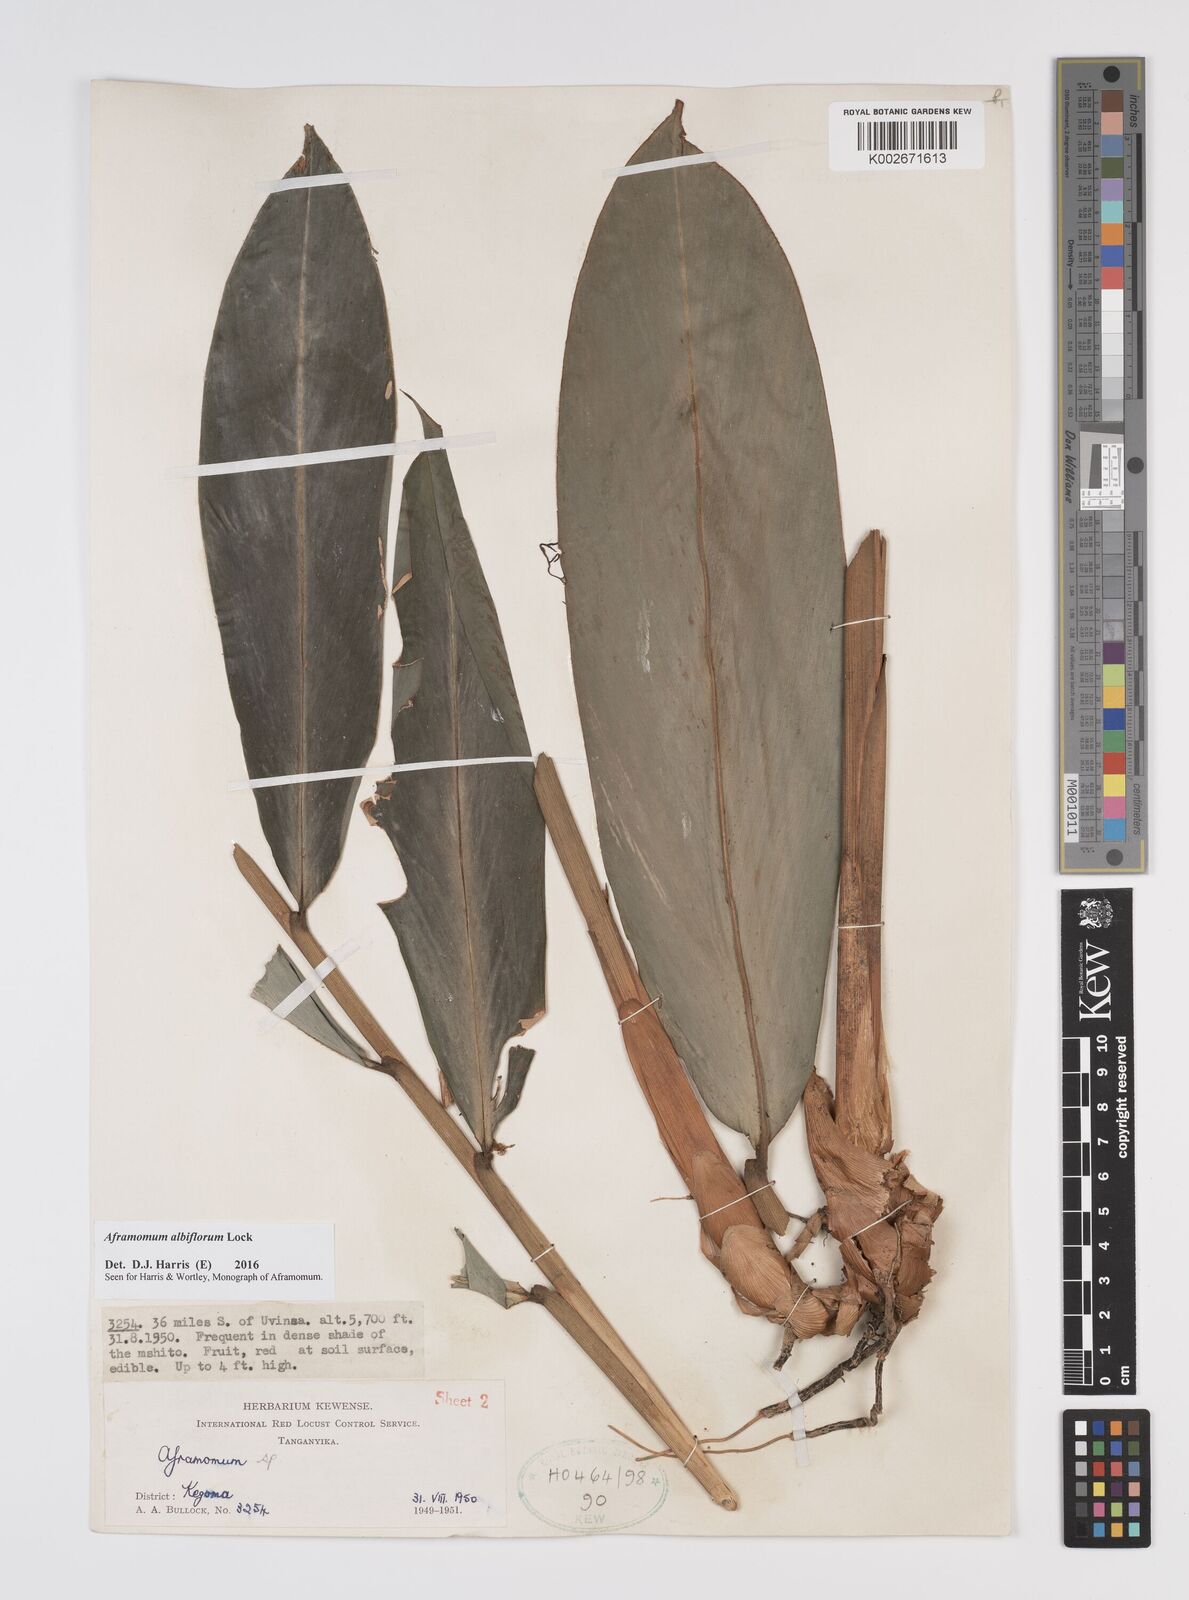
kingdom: Plantae
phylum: Tracheophyta
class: Liliopsida
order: Zingiberales
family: Zingiberaceae
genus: Aframomum
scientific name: Aframomum albiflorum
